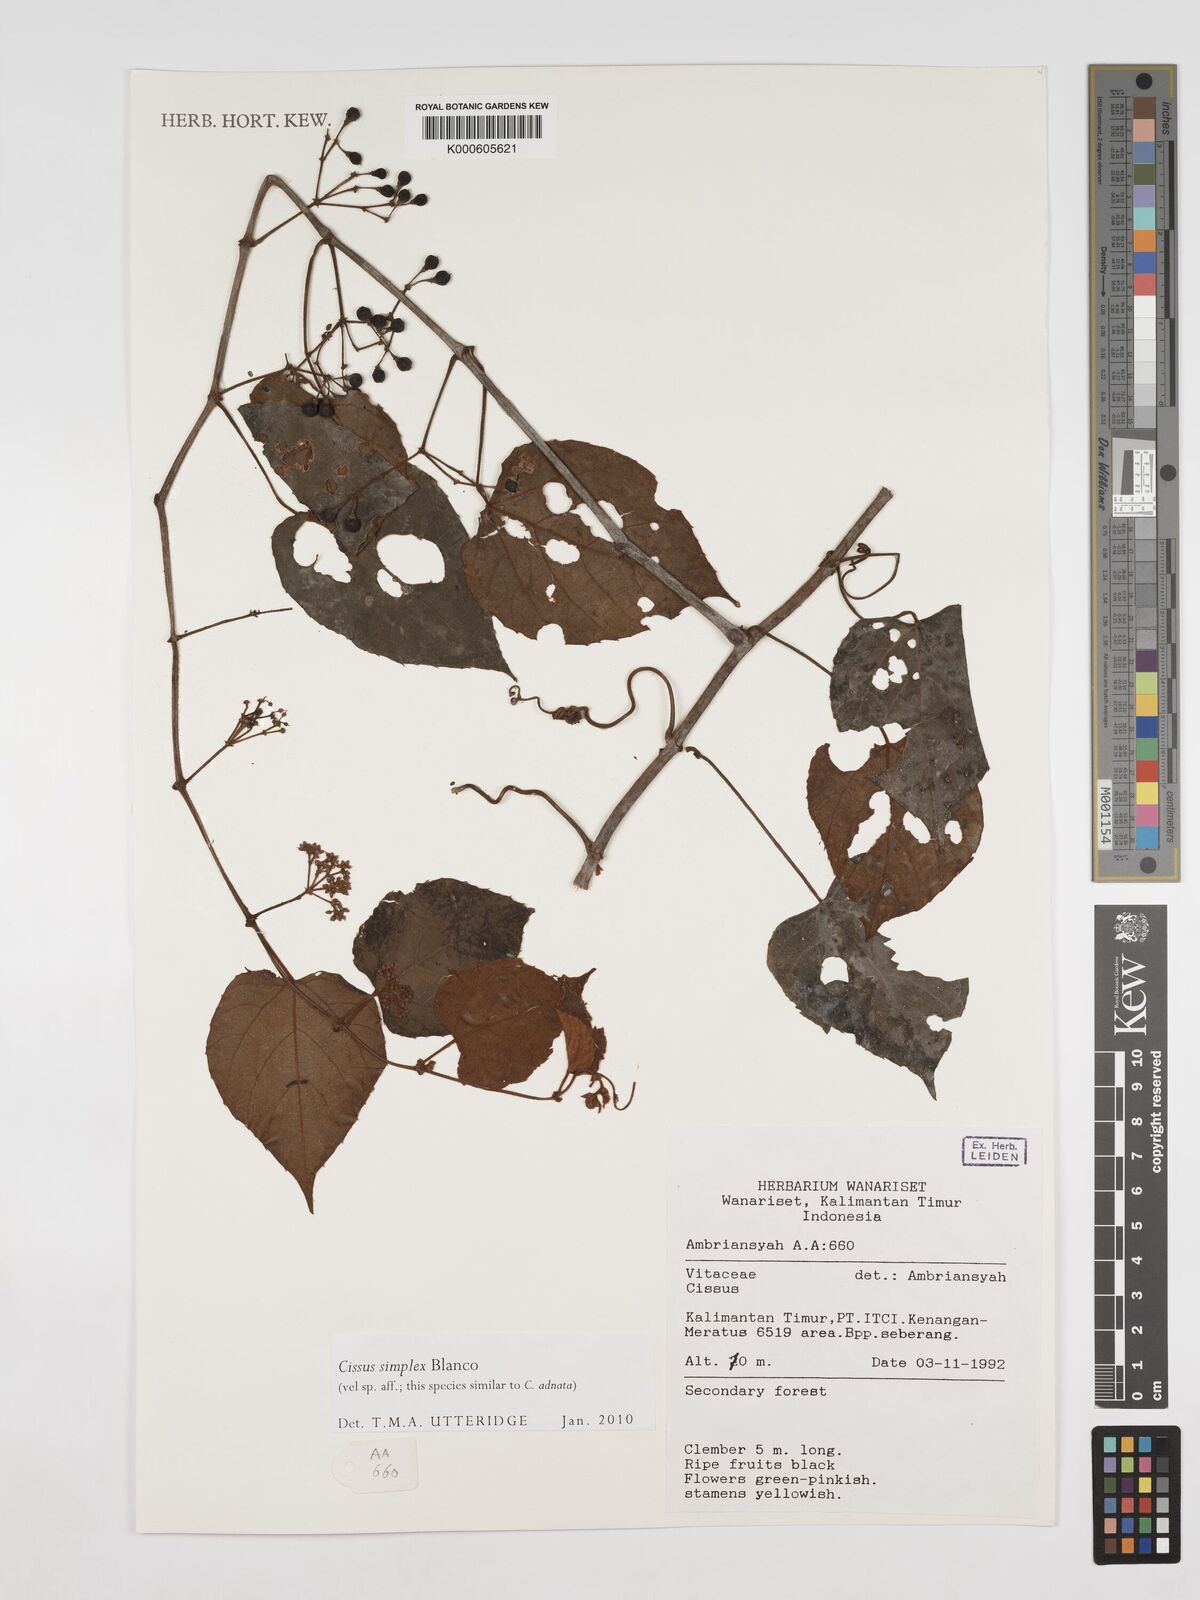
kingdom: Plantae
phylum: Tracheophyta
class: Magnoliopsida
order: Vitales
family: Vitaceae
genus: Cissus
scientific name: Cissus aristata
